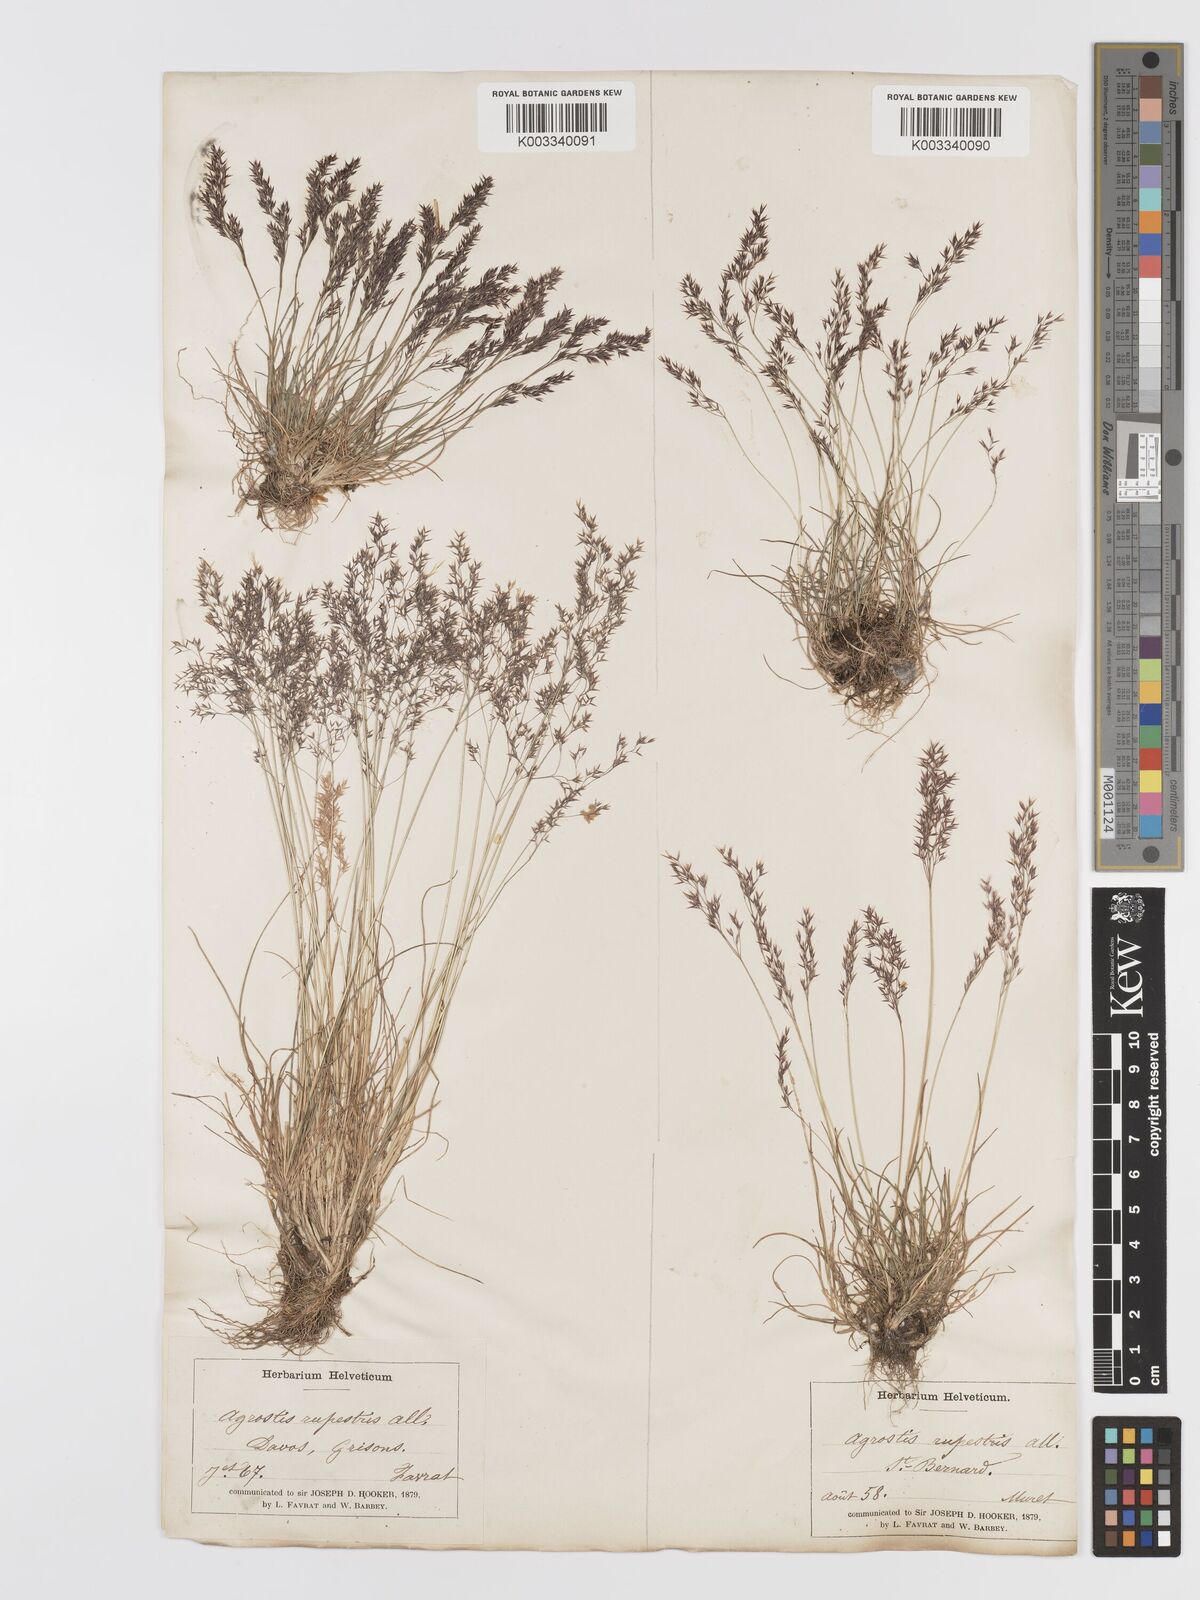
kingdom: Plantae
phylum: Tracheophyta
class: Liliopsida
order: Poales
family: Poaceae
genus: Agrostis
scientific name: Agrostis rupestris
